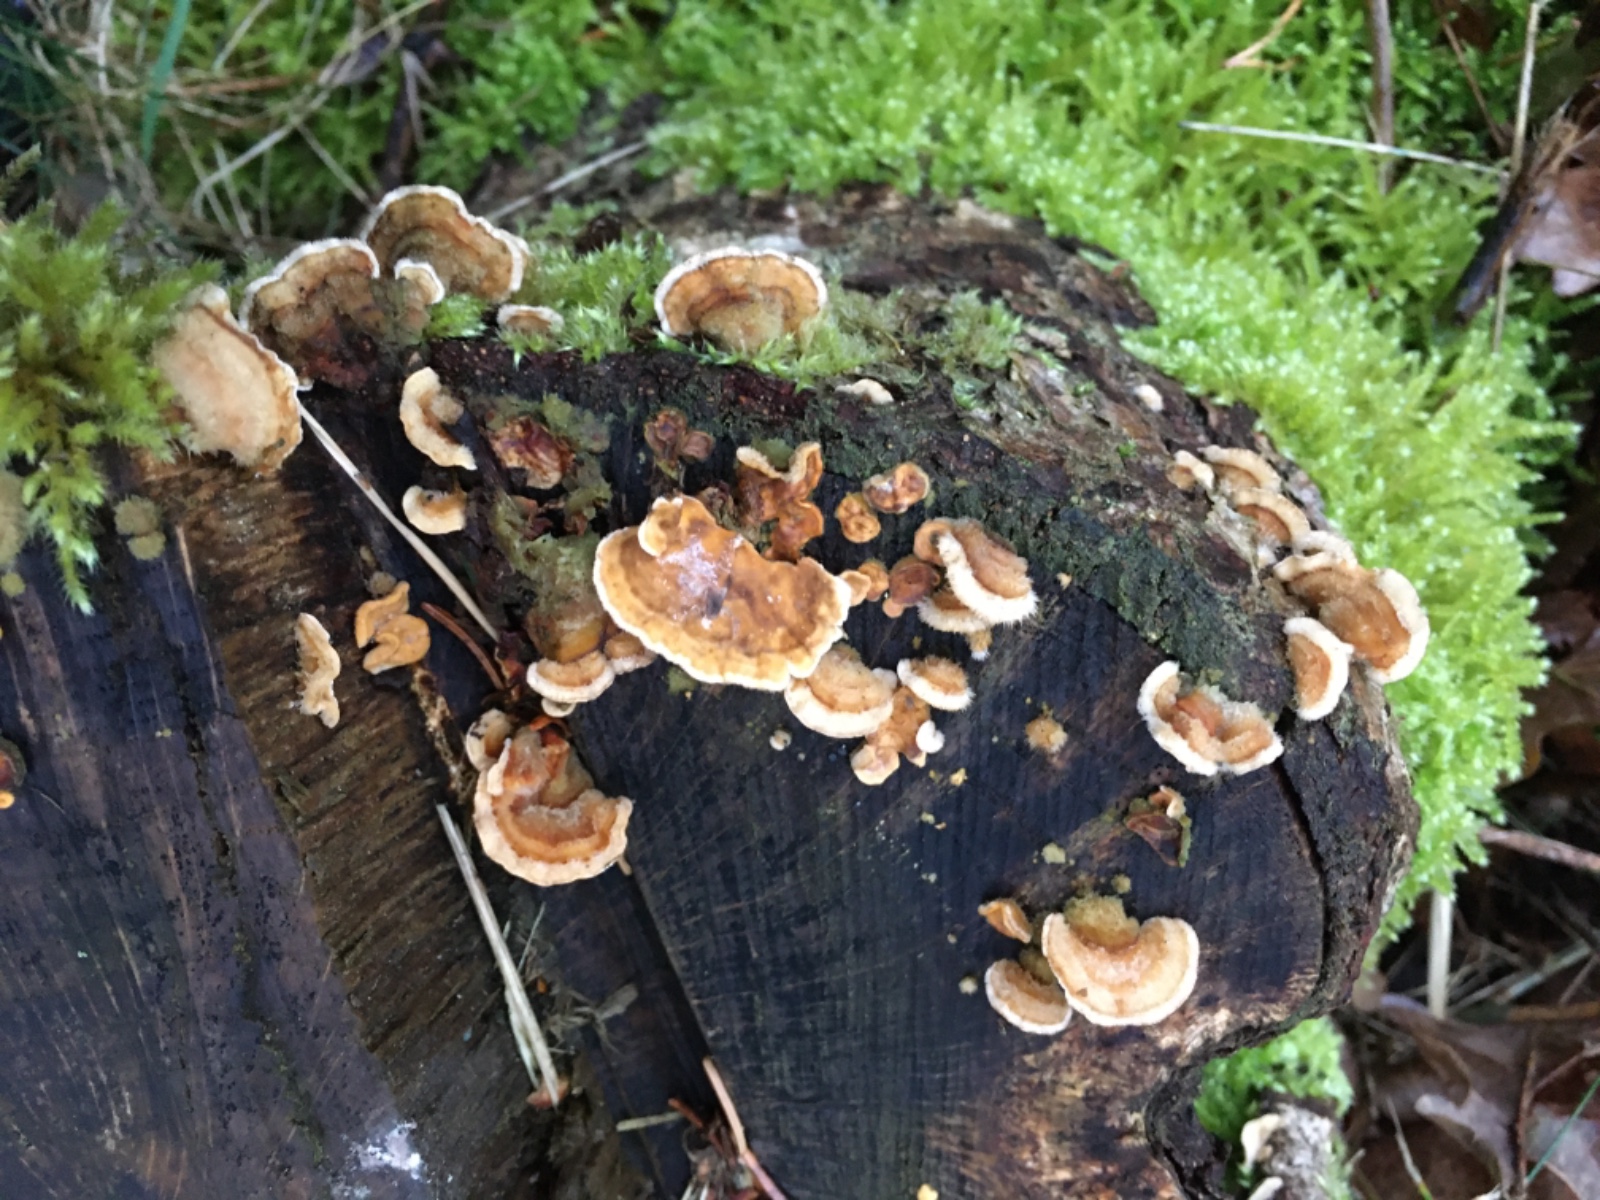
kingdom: Fungi
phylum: Basidiomycota
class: Agaricomycetes
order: Russulales
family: Stereaceae
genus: Stereum
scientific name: Stereum hirsutum
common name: håret lædersvamp
